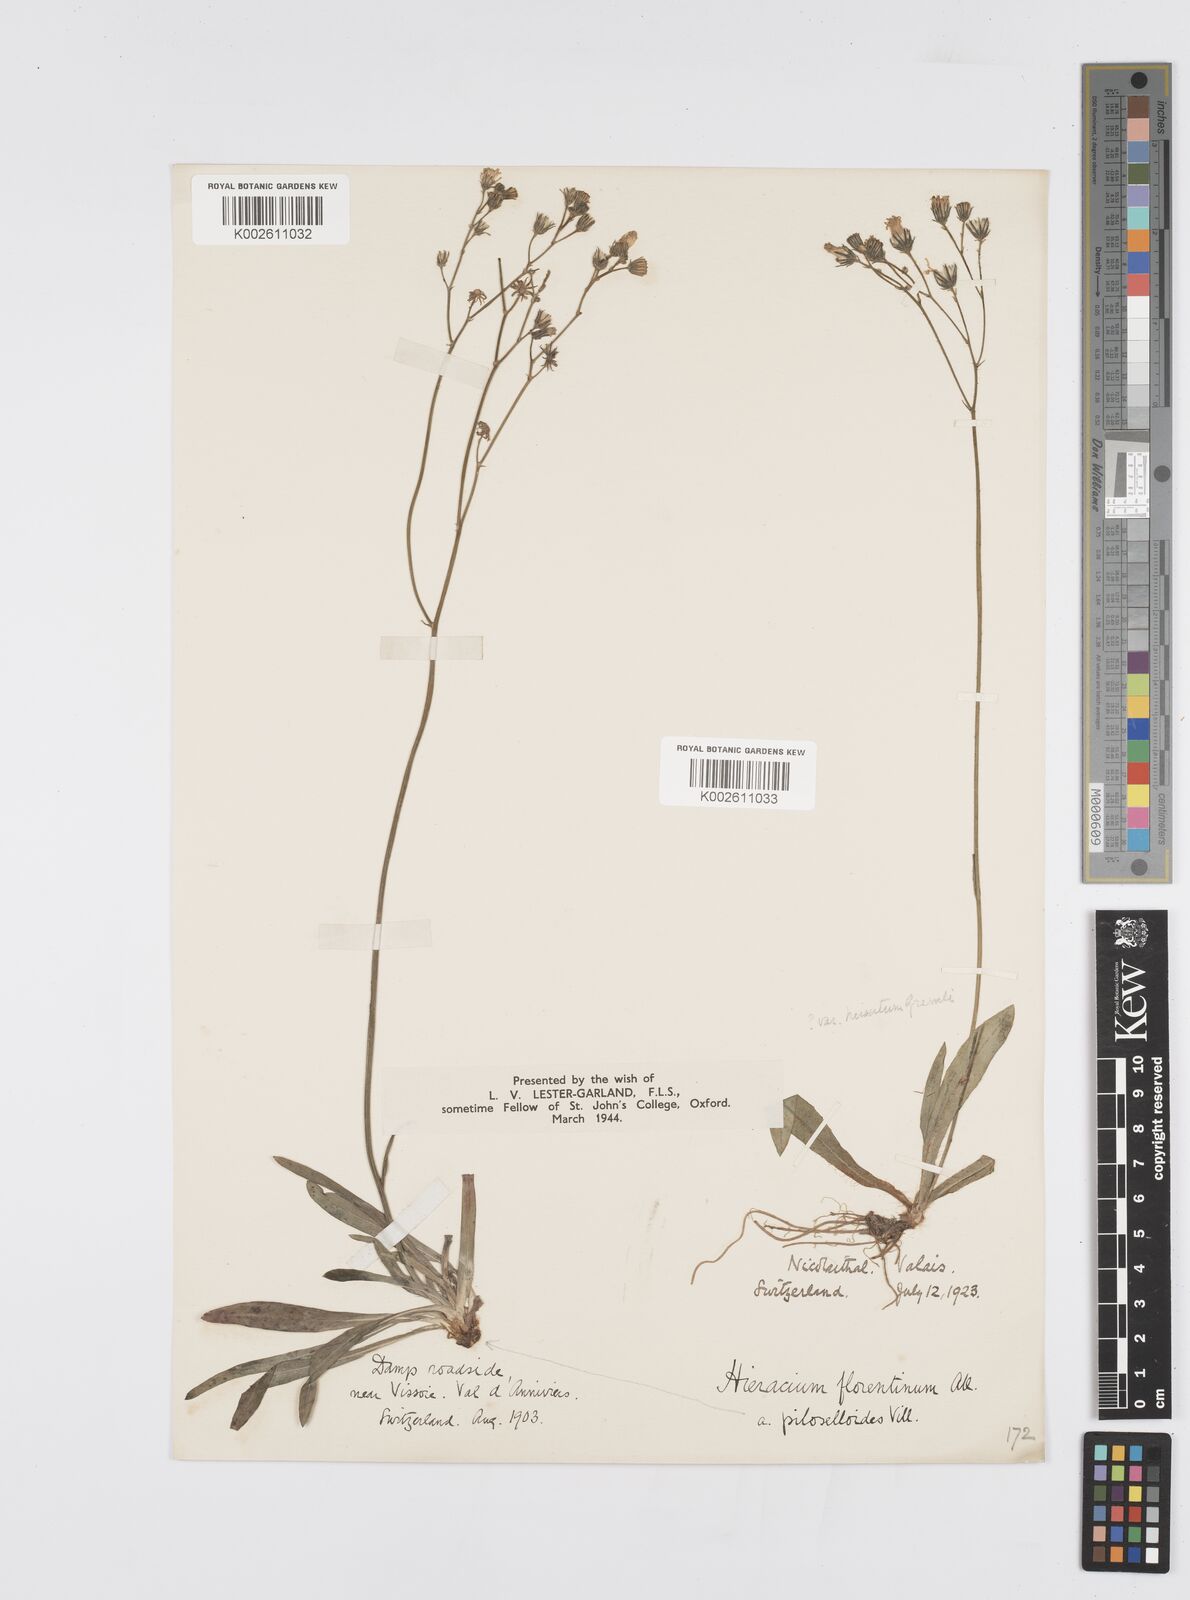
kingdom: Plantae
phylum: Tracheophyta
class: Magnoliopsida
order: Asterales
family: Asteraceae
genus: Pilosella
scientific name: Pilosella piloselloides
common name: Glaucous king-devil
